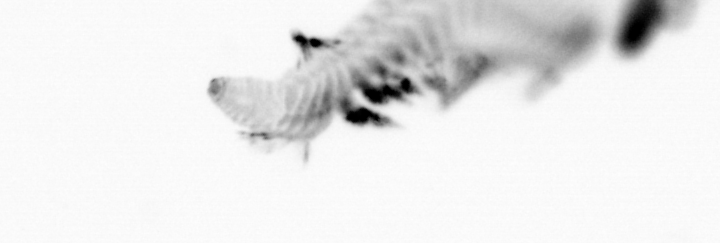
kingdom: Animalia
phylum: Annelida
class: Polychaeta
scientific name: Polychaeta
